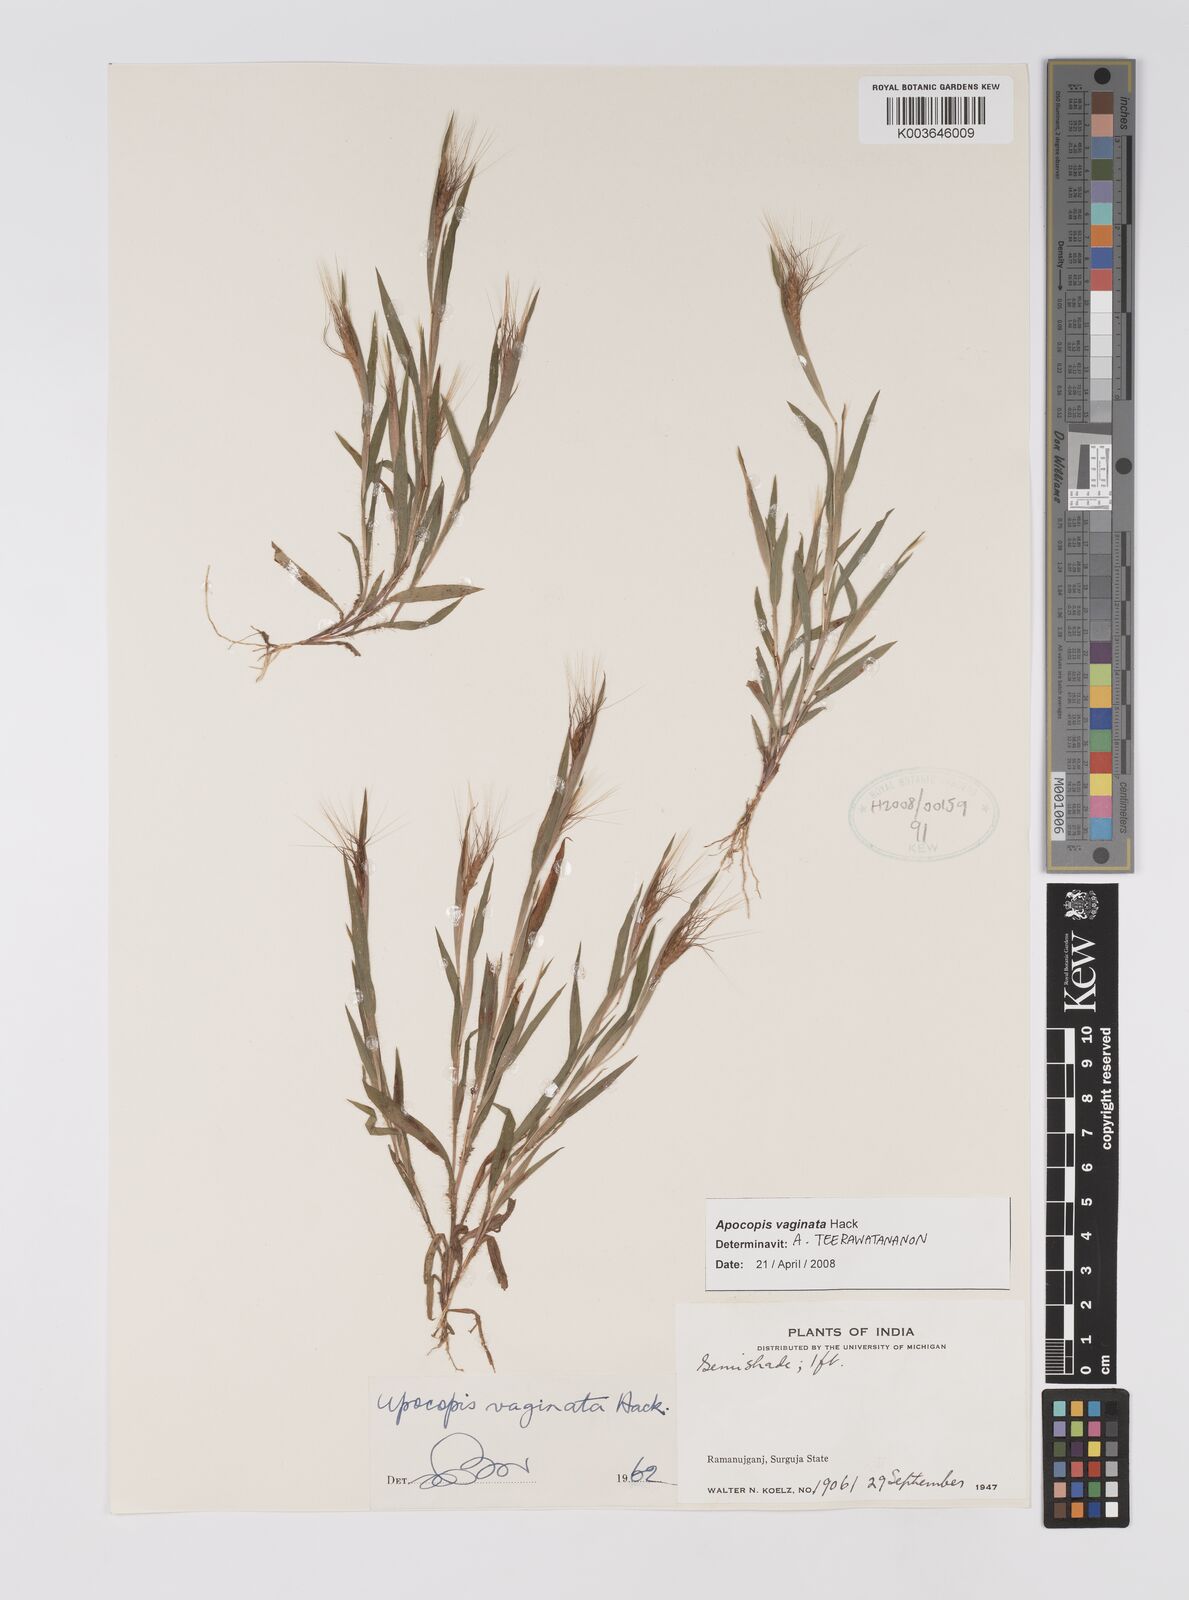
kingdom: Plantae
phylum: Tracheophyta
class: Liliopsida
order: Poales
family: Poaceae
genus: Apocopis
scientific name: Apocopis vaginatus
